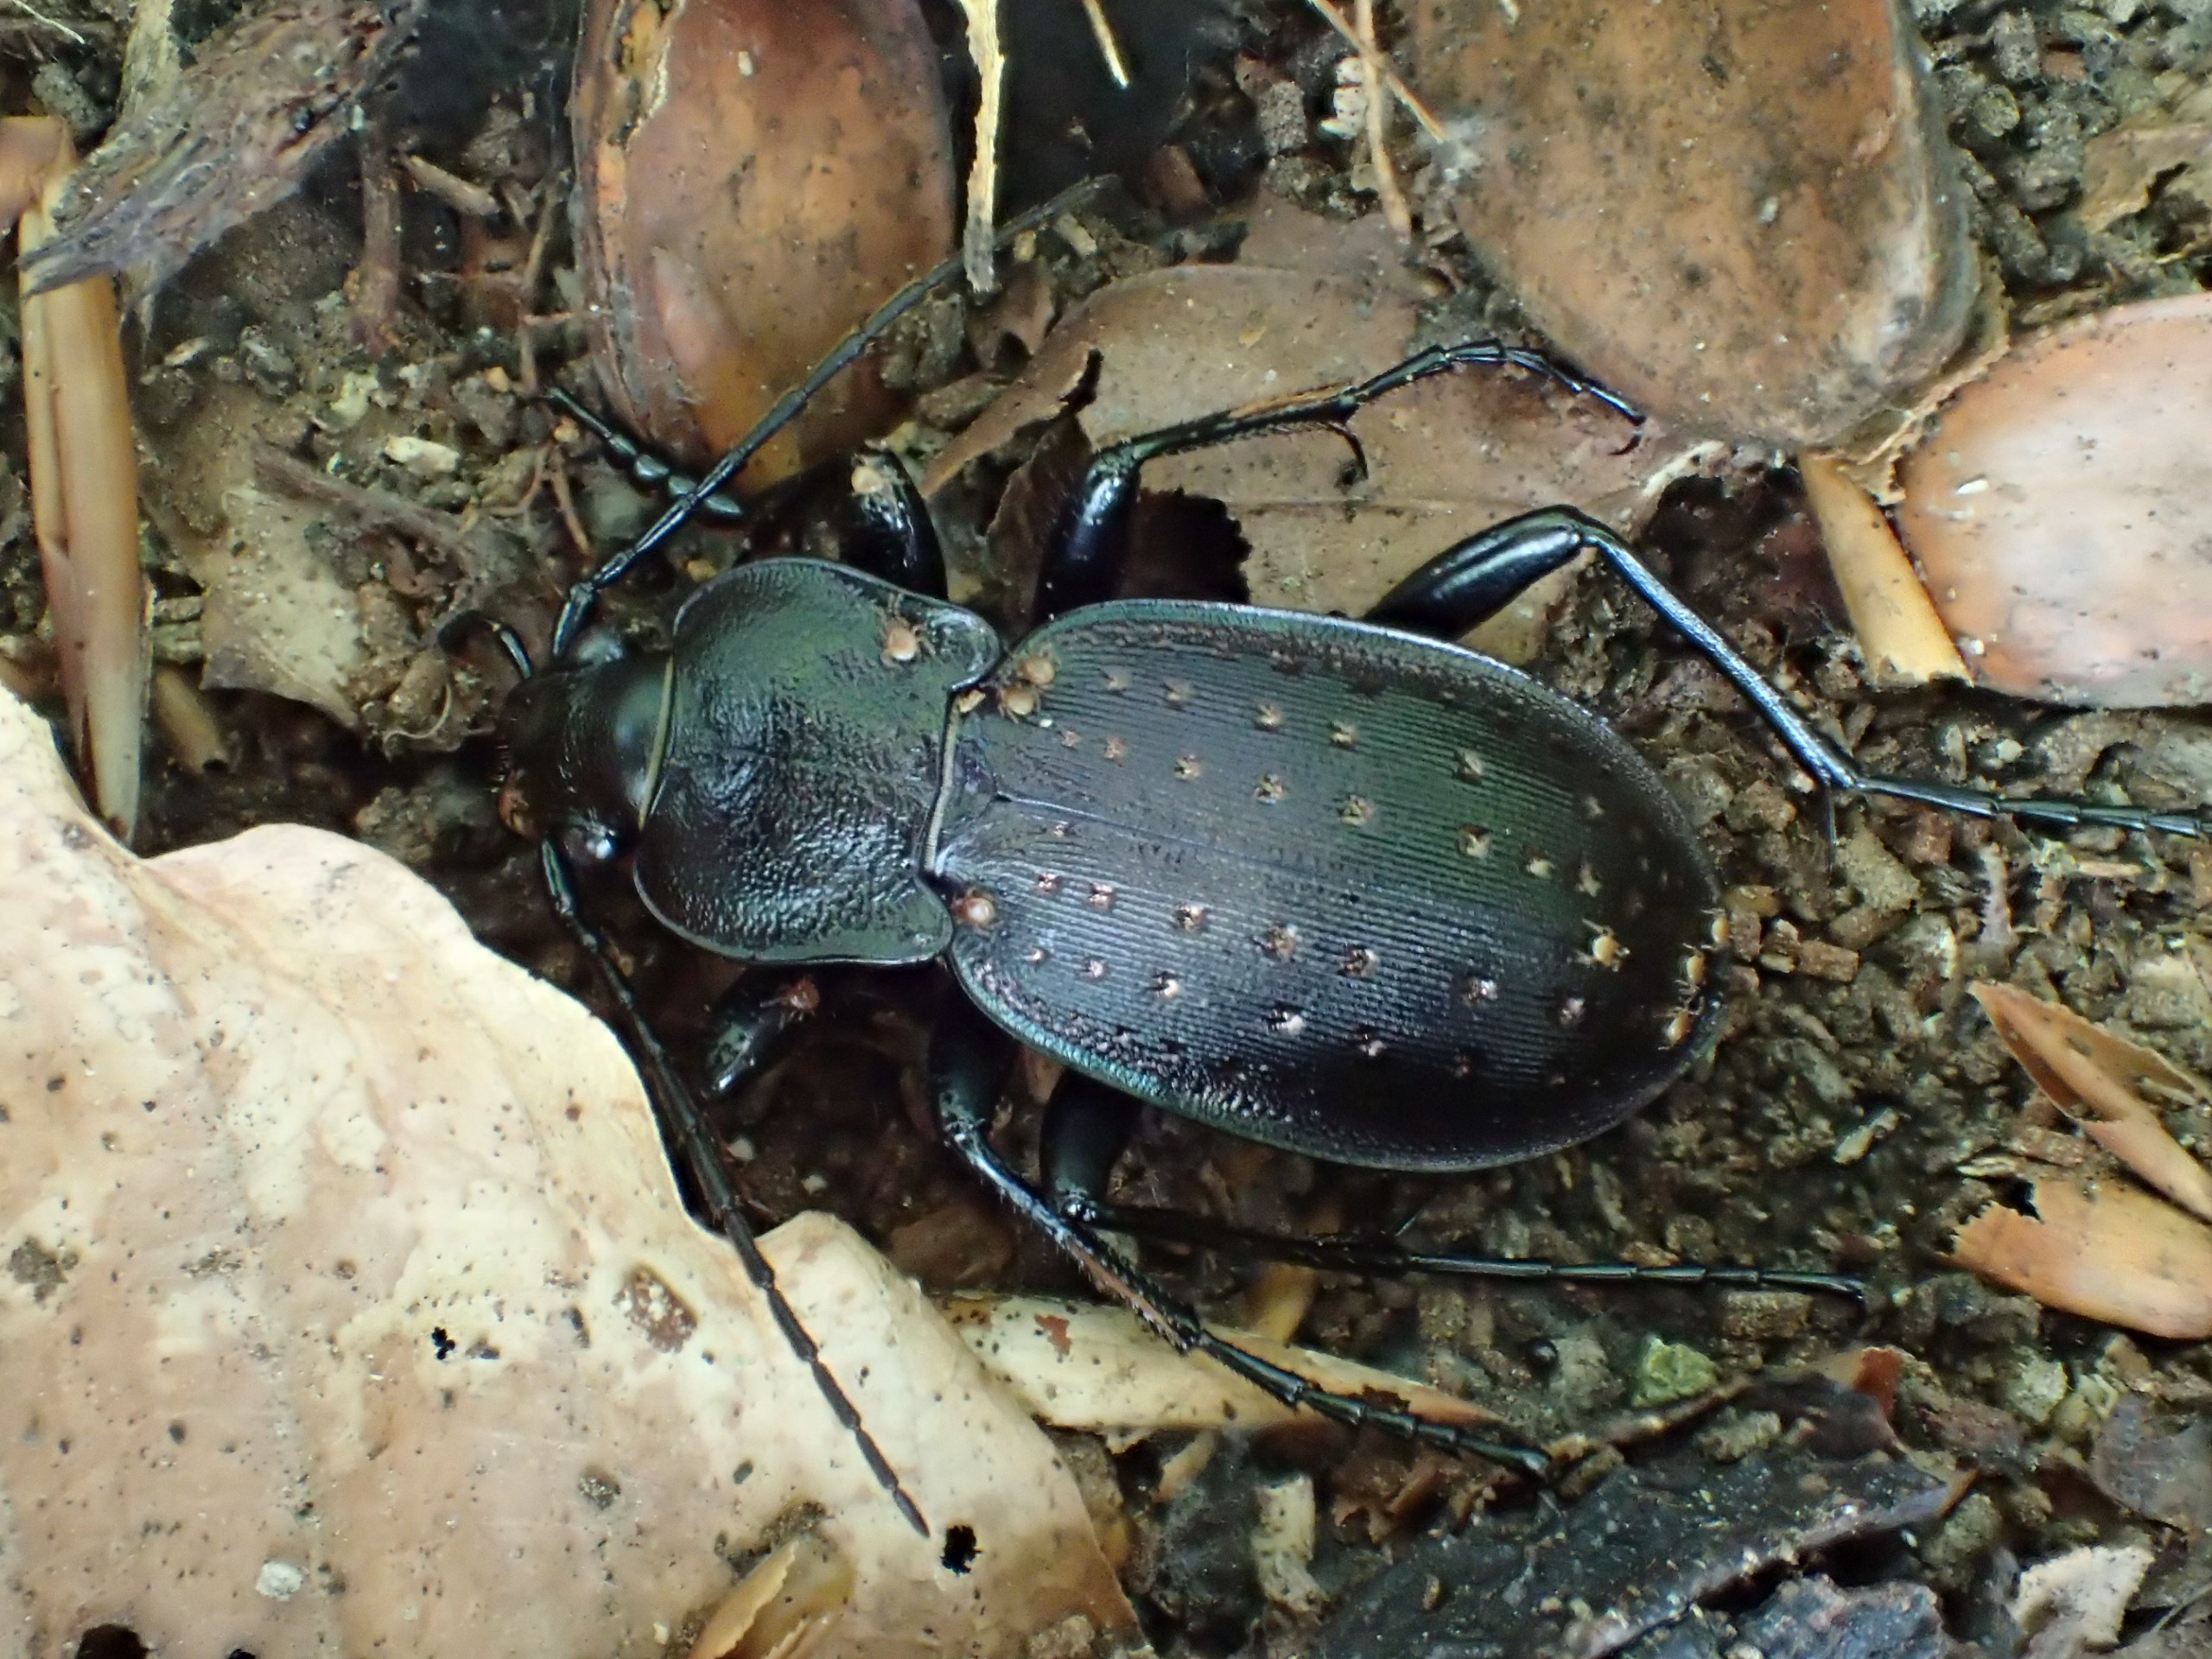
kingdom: Animalia
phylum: Arthropoda
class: Insecta
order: Coleoptera
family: Carabidae
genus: Carabus
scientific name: Carabus hortensis
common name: Guldpletløber
